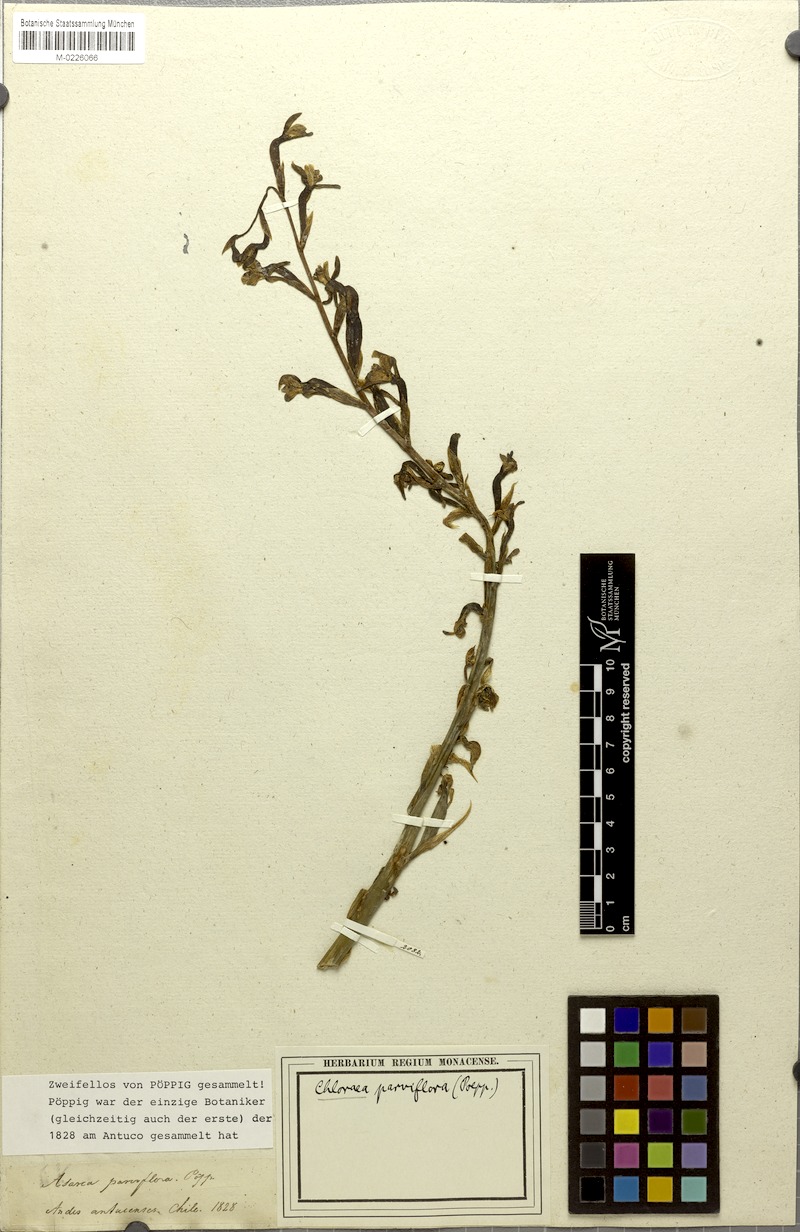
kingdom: Plantae
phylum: Tracheophyta
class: Liliopsida
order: Asparagales
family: Orchidaceae
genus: Chloraea
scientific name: Chloraea galeata
